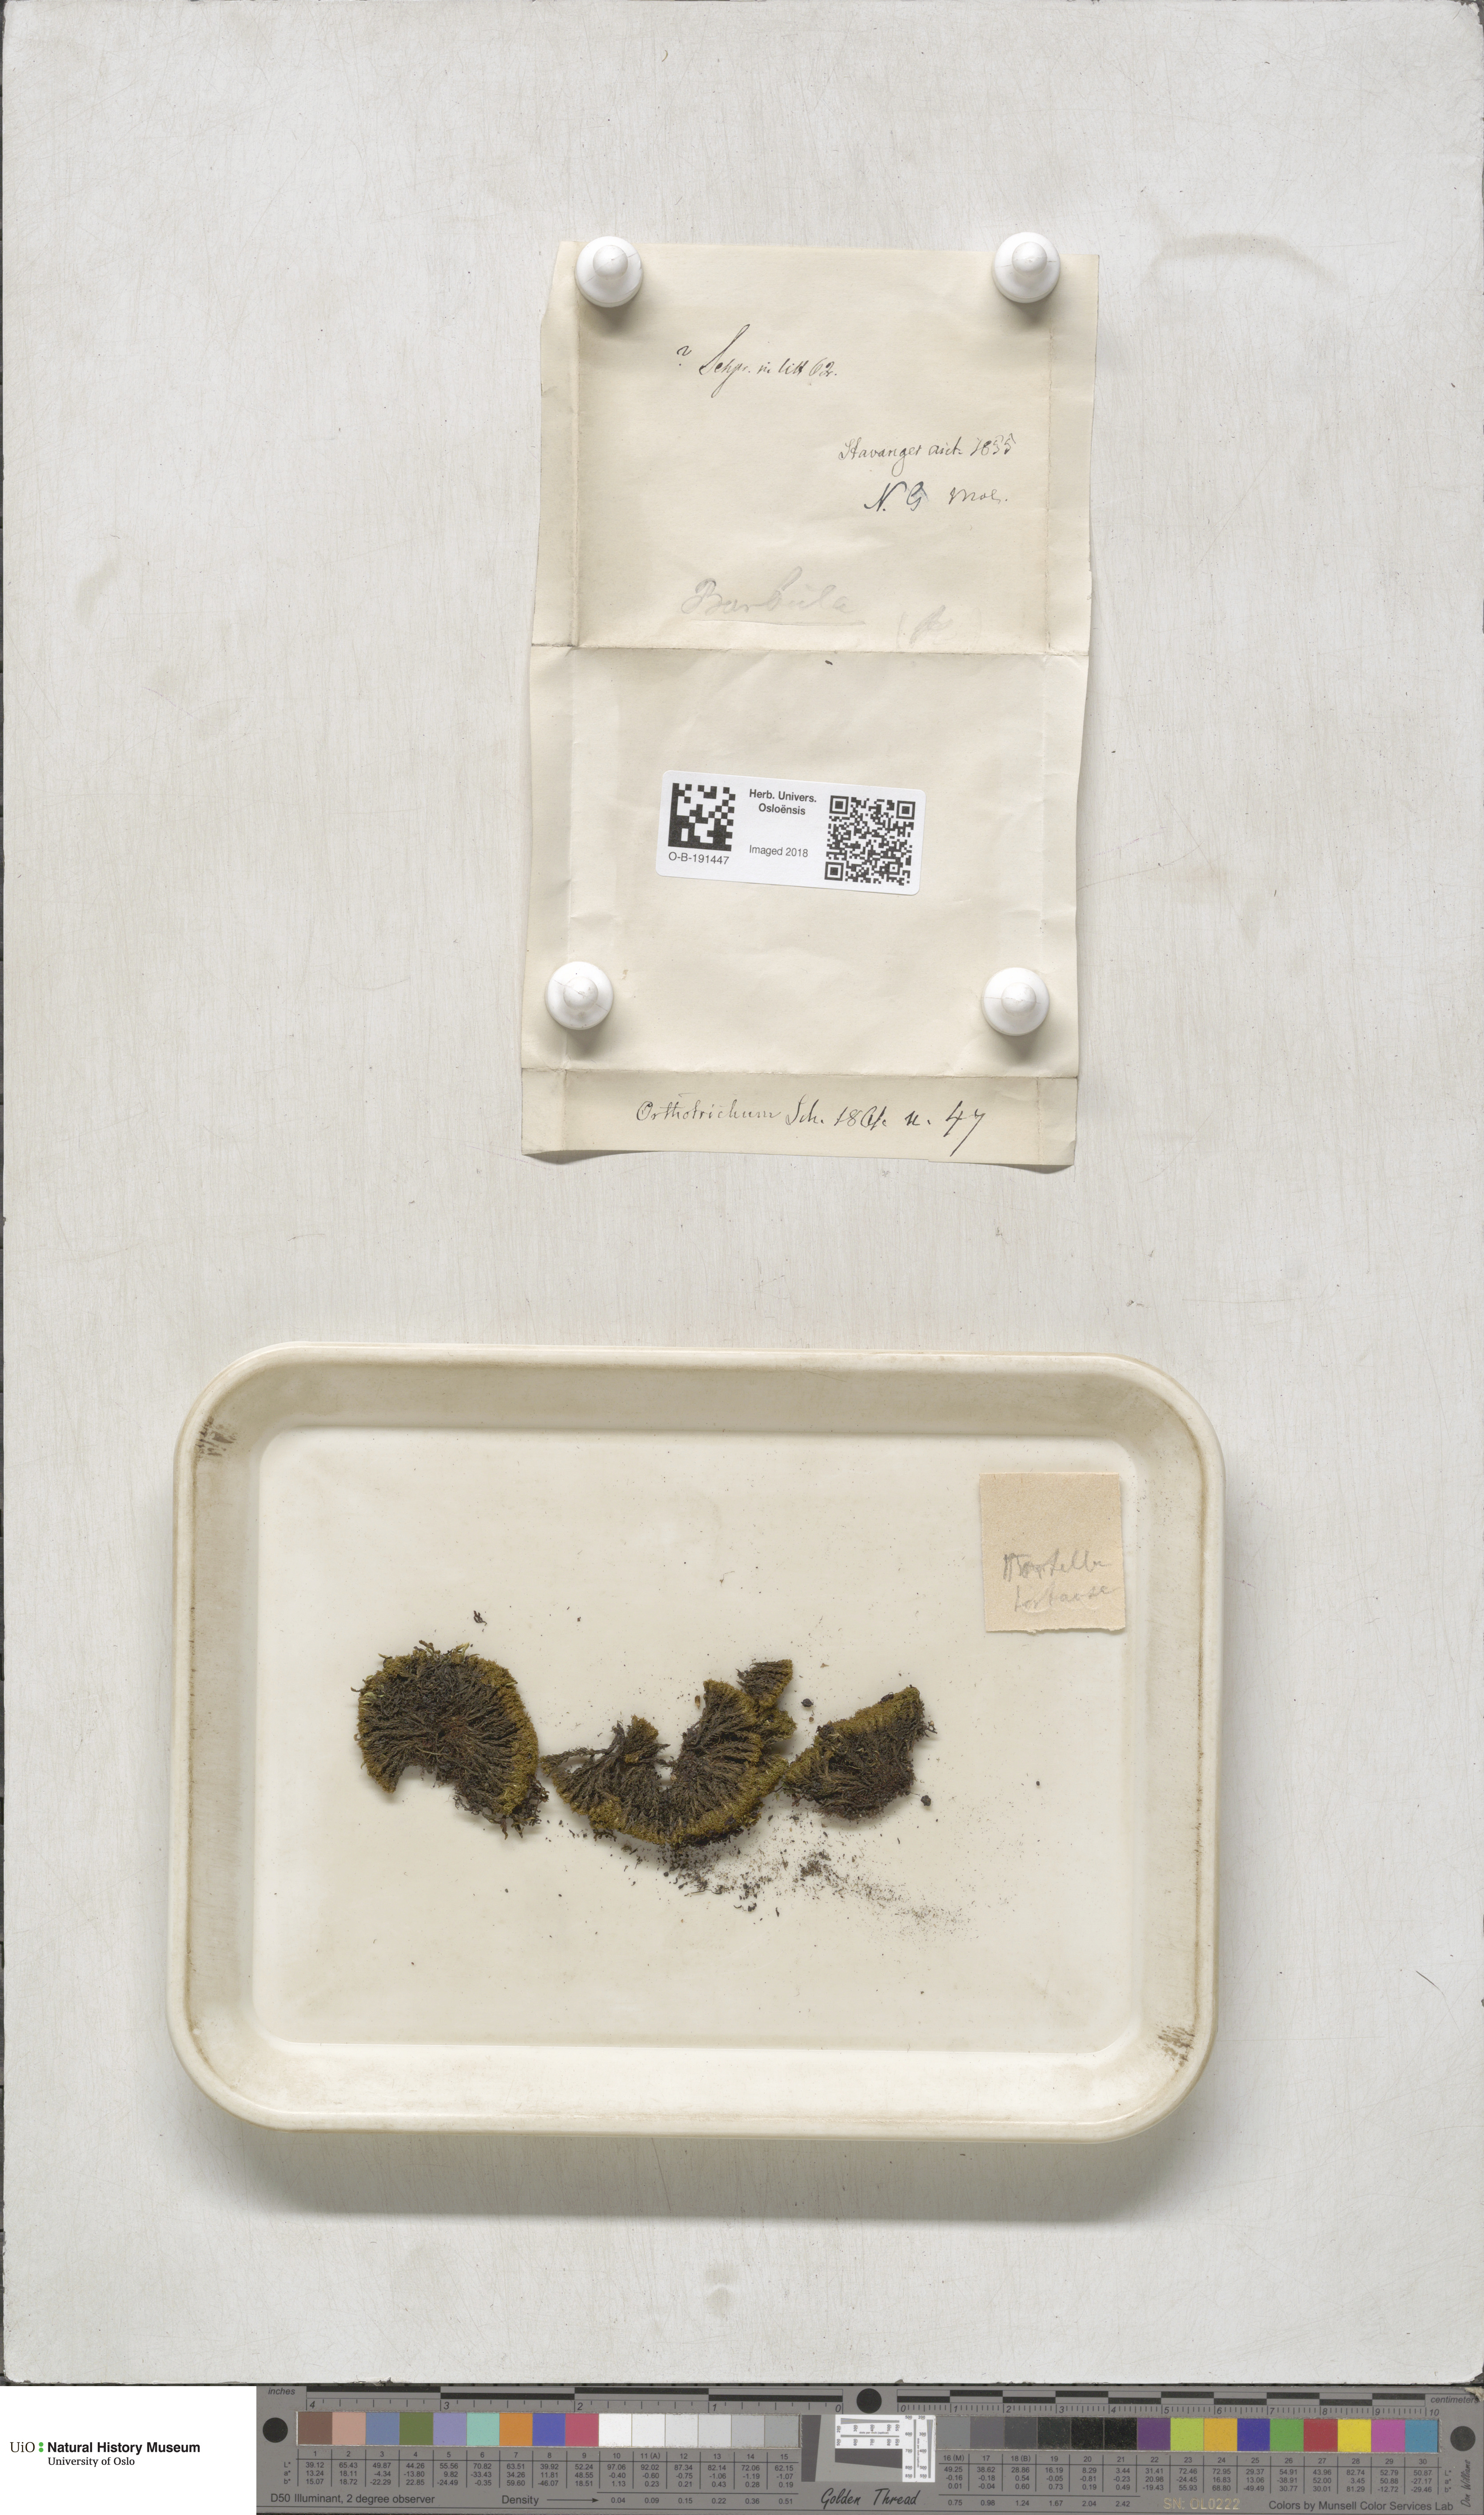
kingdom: Plantae
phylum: Bryophyta
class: Bryopsida
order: Pottiales
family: Pottiaceae
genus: Tortella
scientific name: Tortella tortuosa
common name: Frizzled crisp moss
